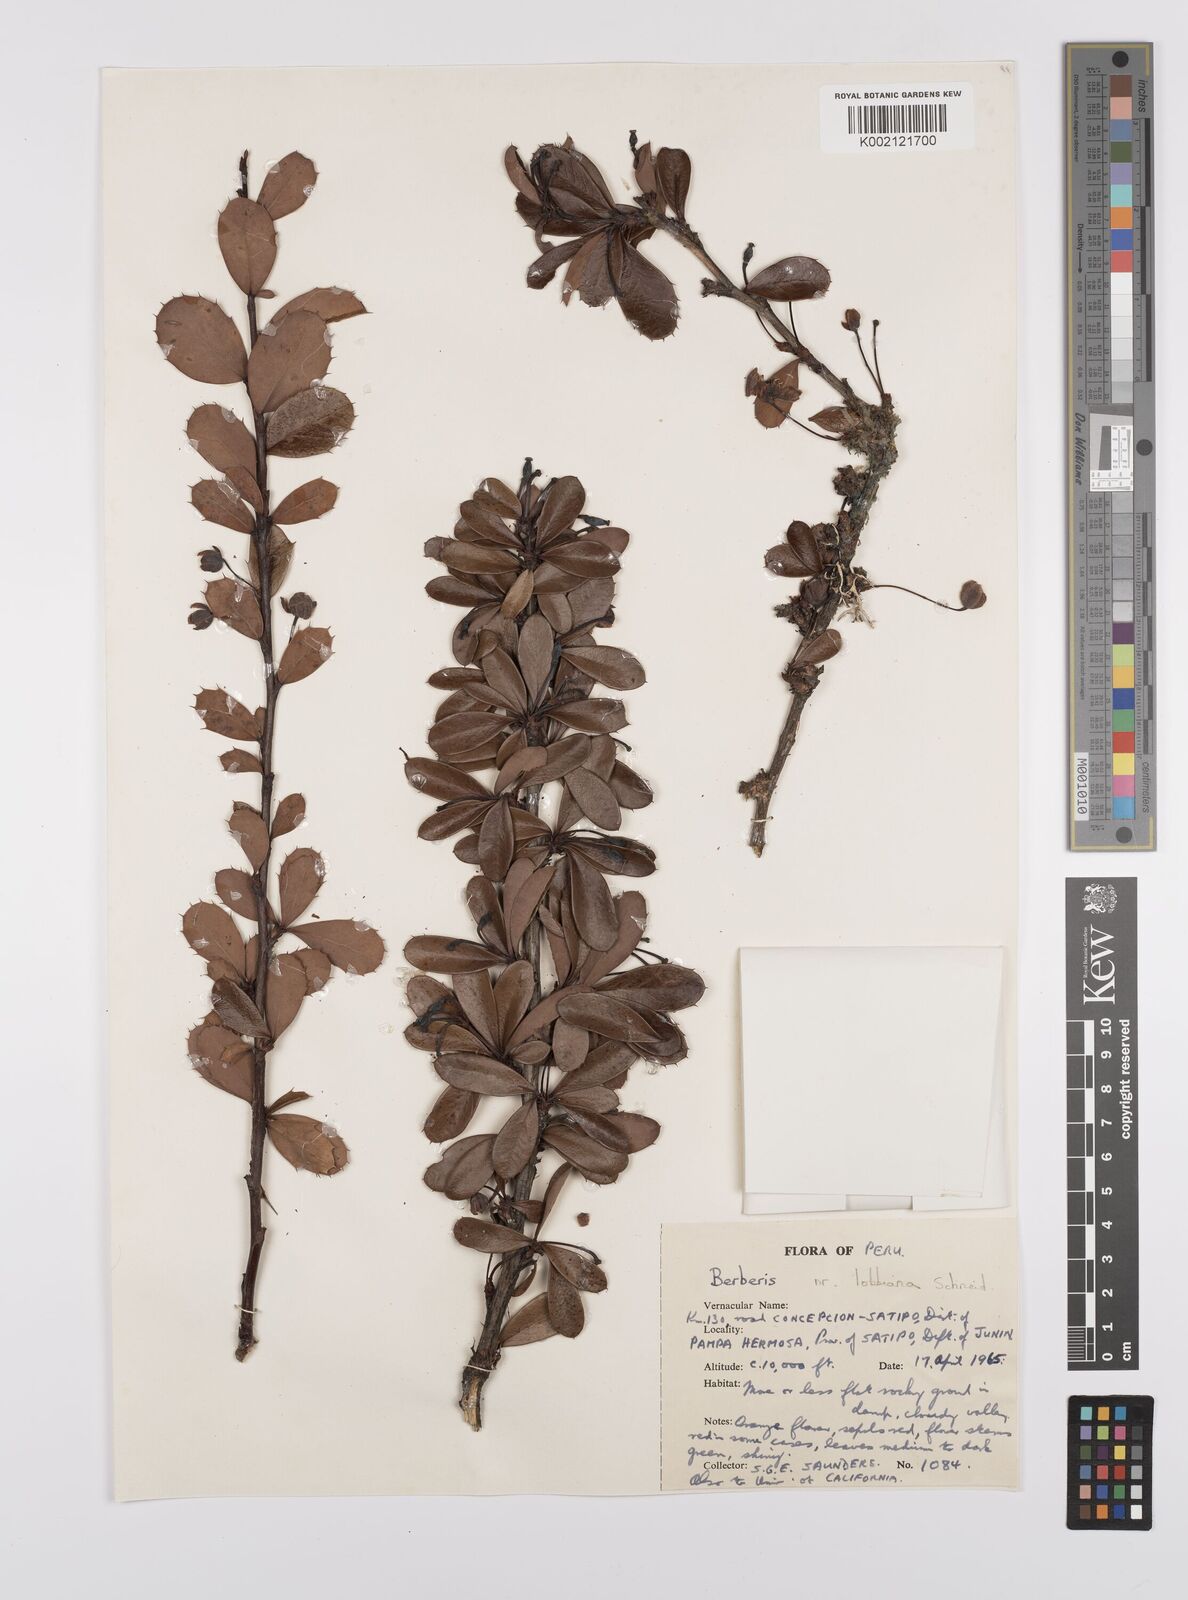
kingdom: Plantae
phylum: Tracheophyta
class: Magnoliopsida
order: Ranunculales
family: Berberidaceae
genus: Berberis
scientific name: Berberis lutea
